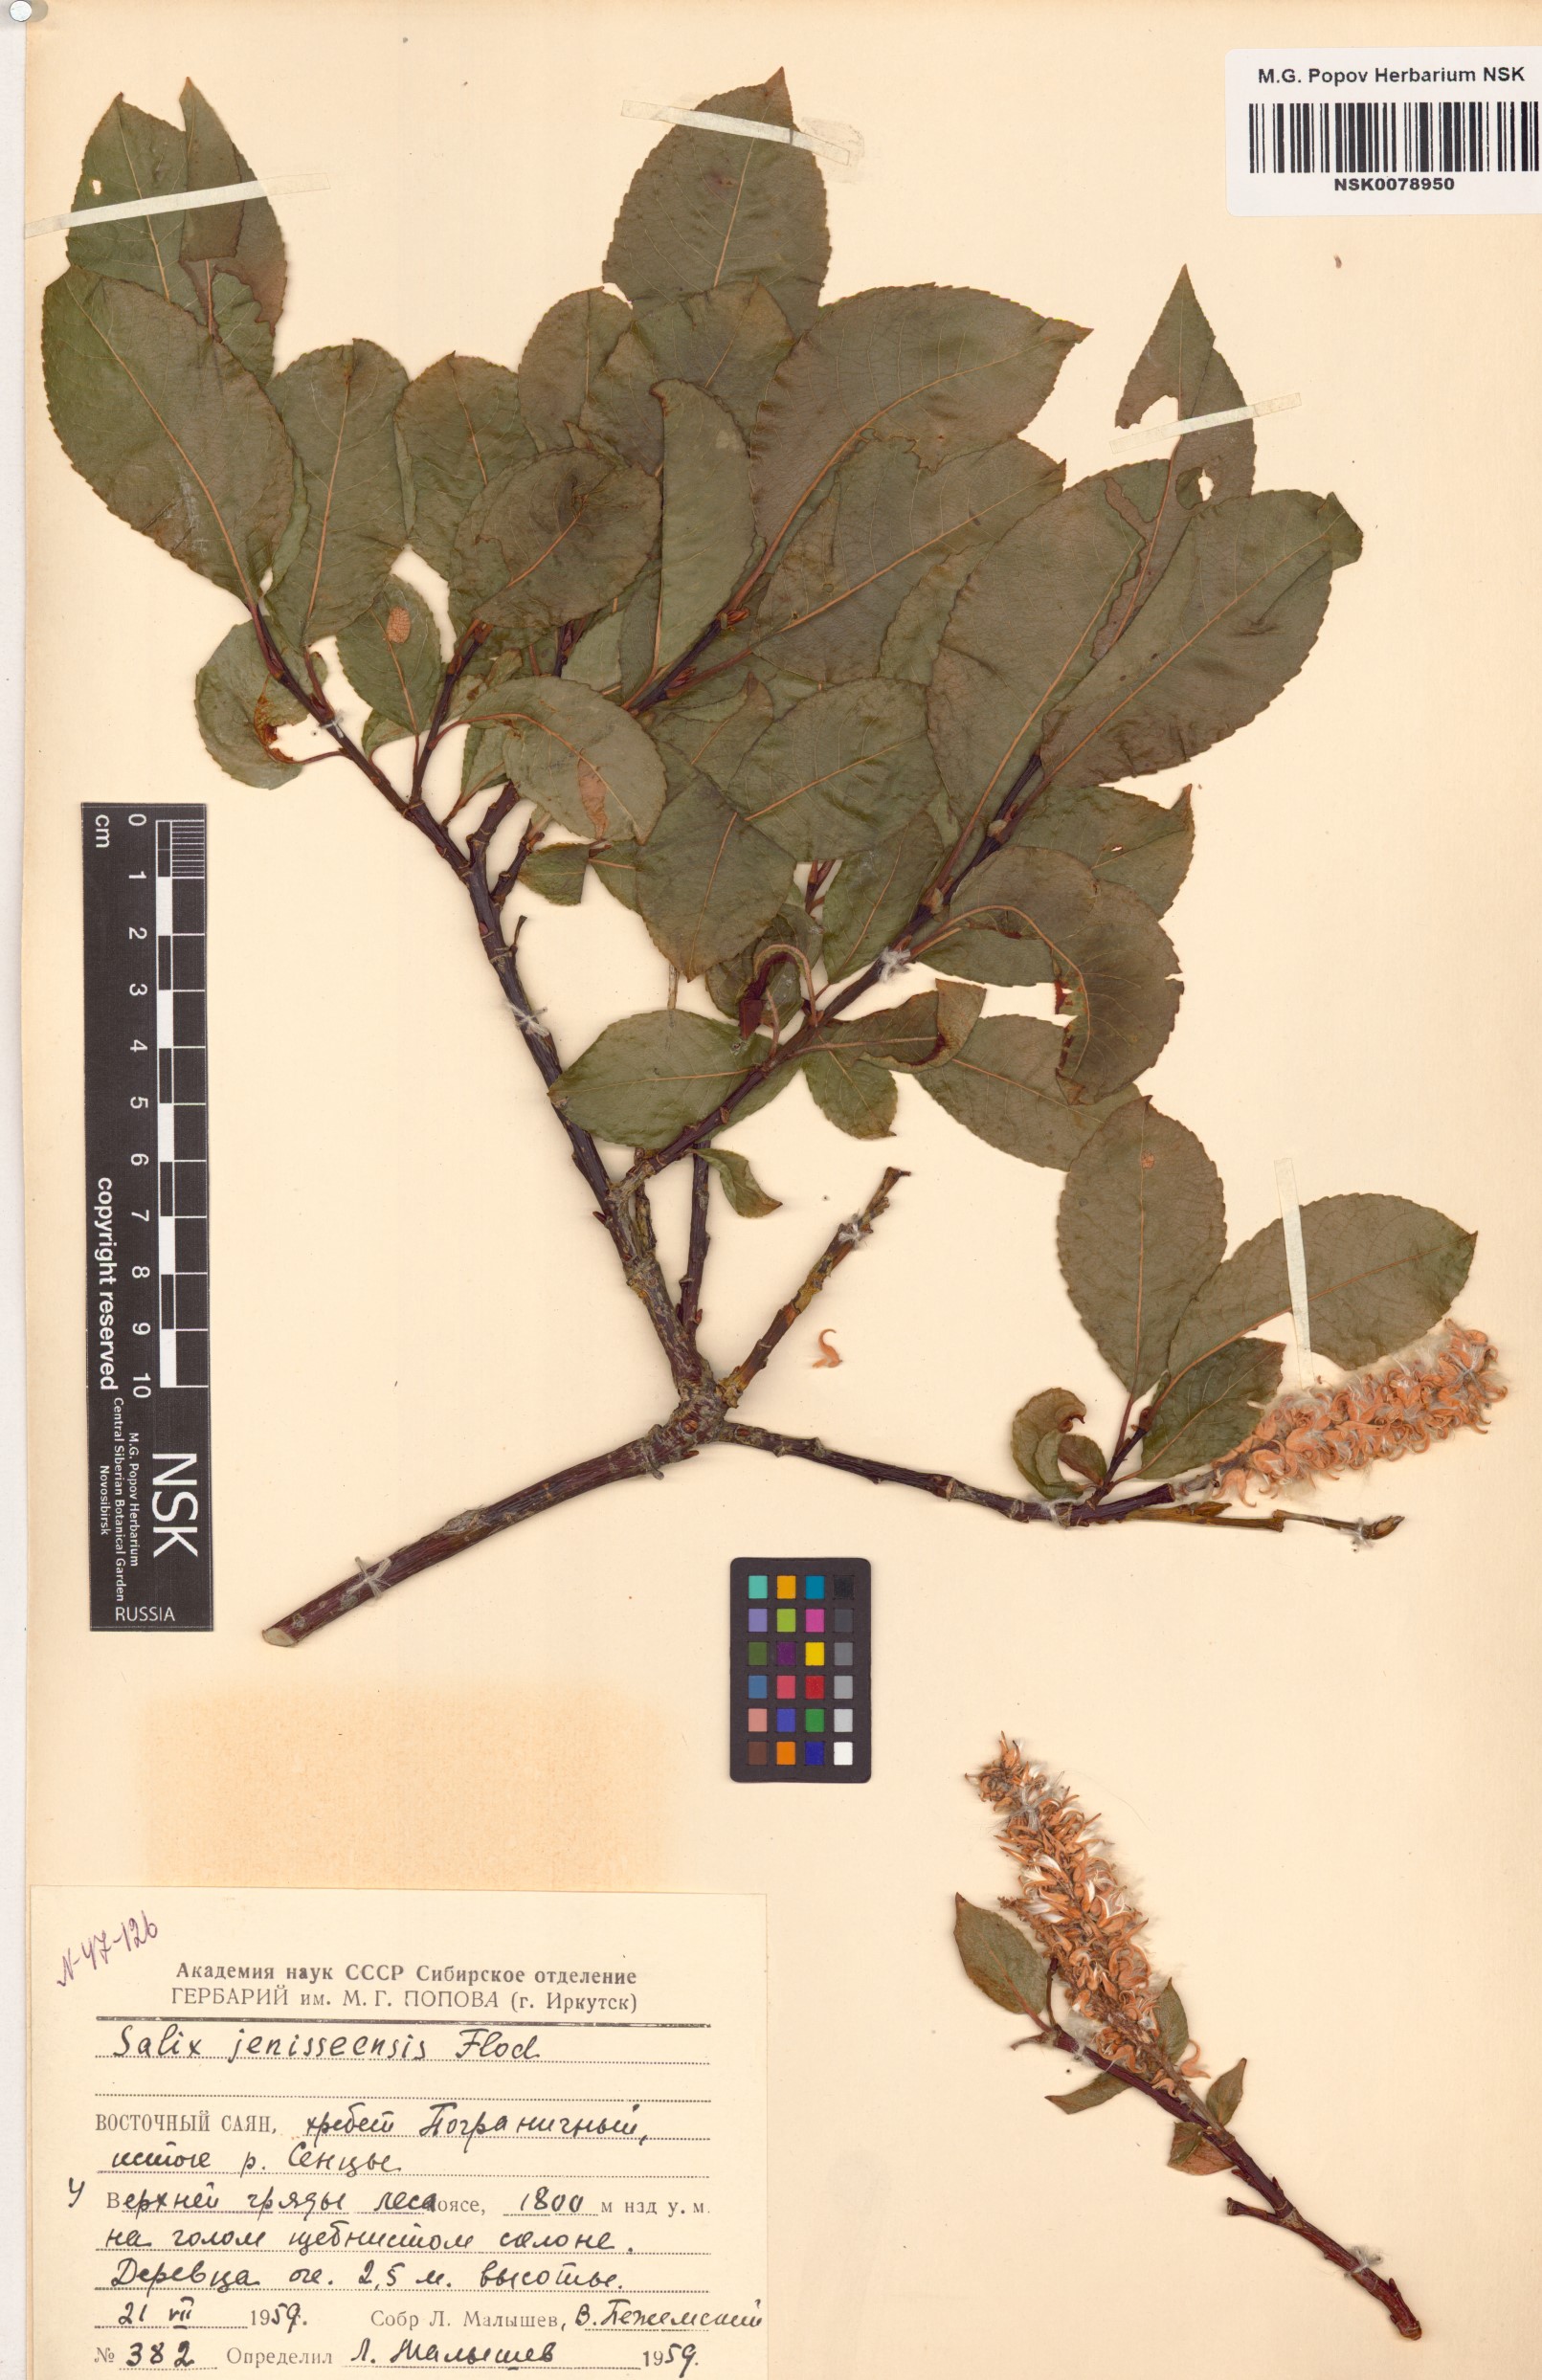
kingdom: Plantae
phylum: Tracheophyta
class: Magnoliopsida
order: Malpighiales
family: Salicaceae
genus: Salix
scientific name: Salix jenisseensis
